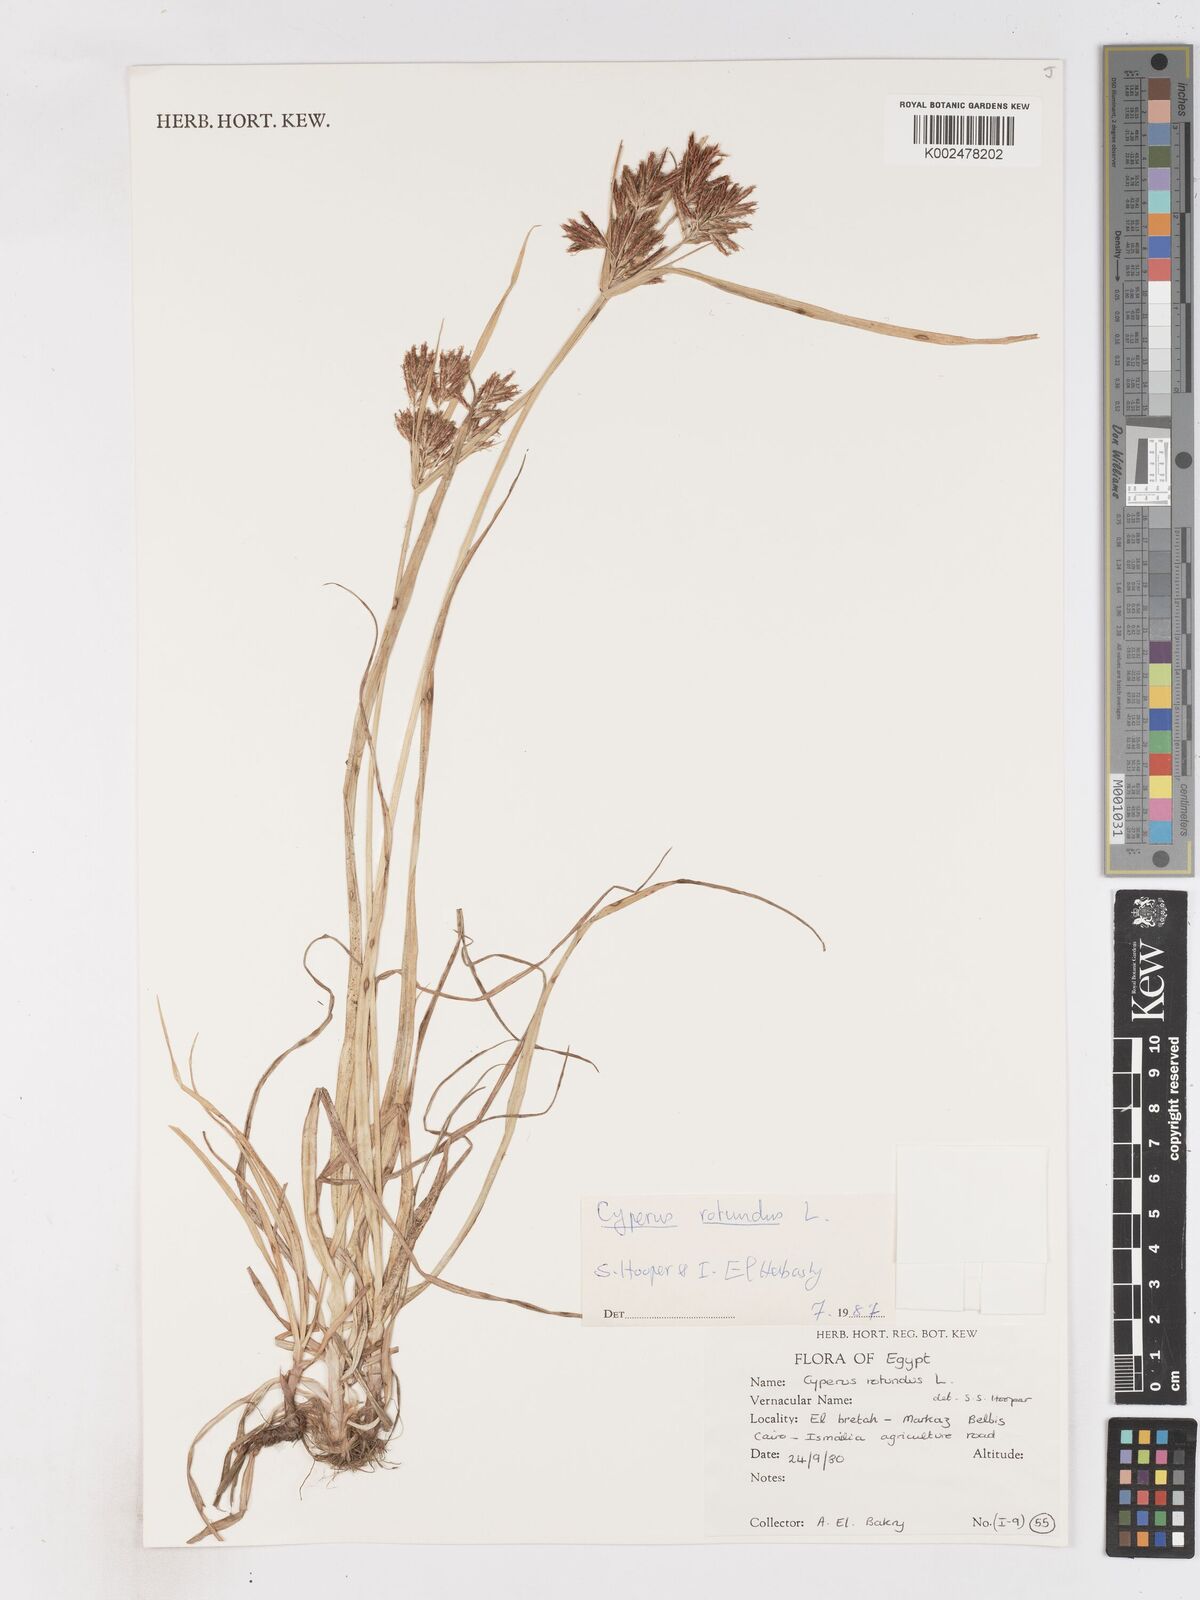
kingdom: Plantae
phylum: Tracheophyta
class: Liliopsida
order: Poales
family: Cyperaceae
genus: Cyperus
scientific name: Cyperus rotundus
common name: Nutgrass
